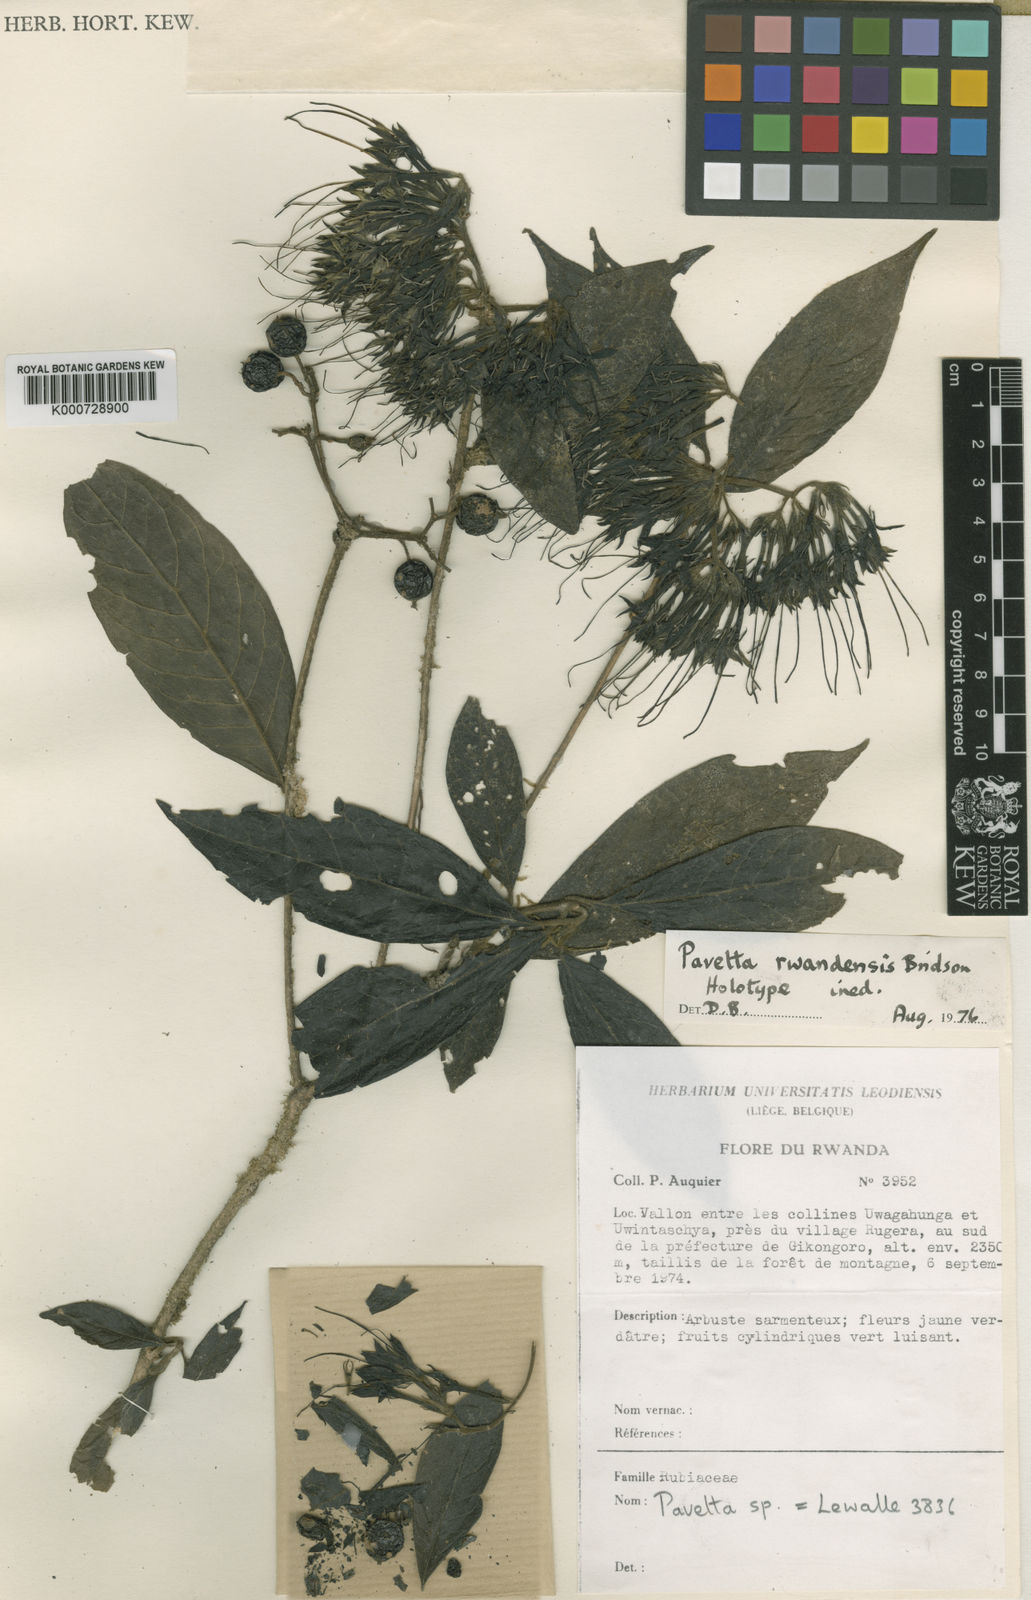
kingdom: Plantae
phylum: Tracheophyta
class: Magnoliopsida
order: Gentianales
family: Rubiaceae
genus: Pavetta
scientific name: Pavetta rwandensis
